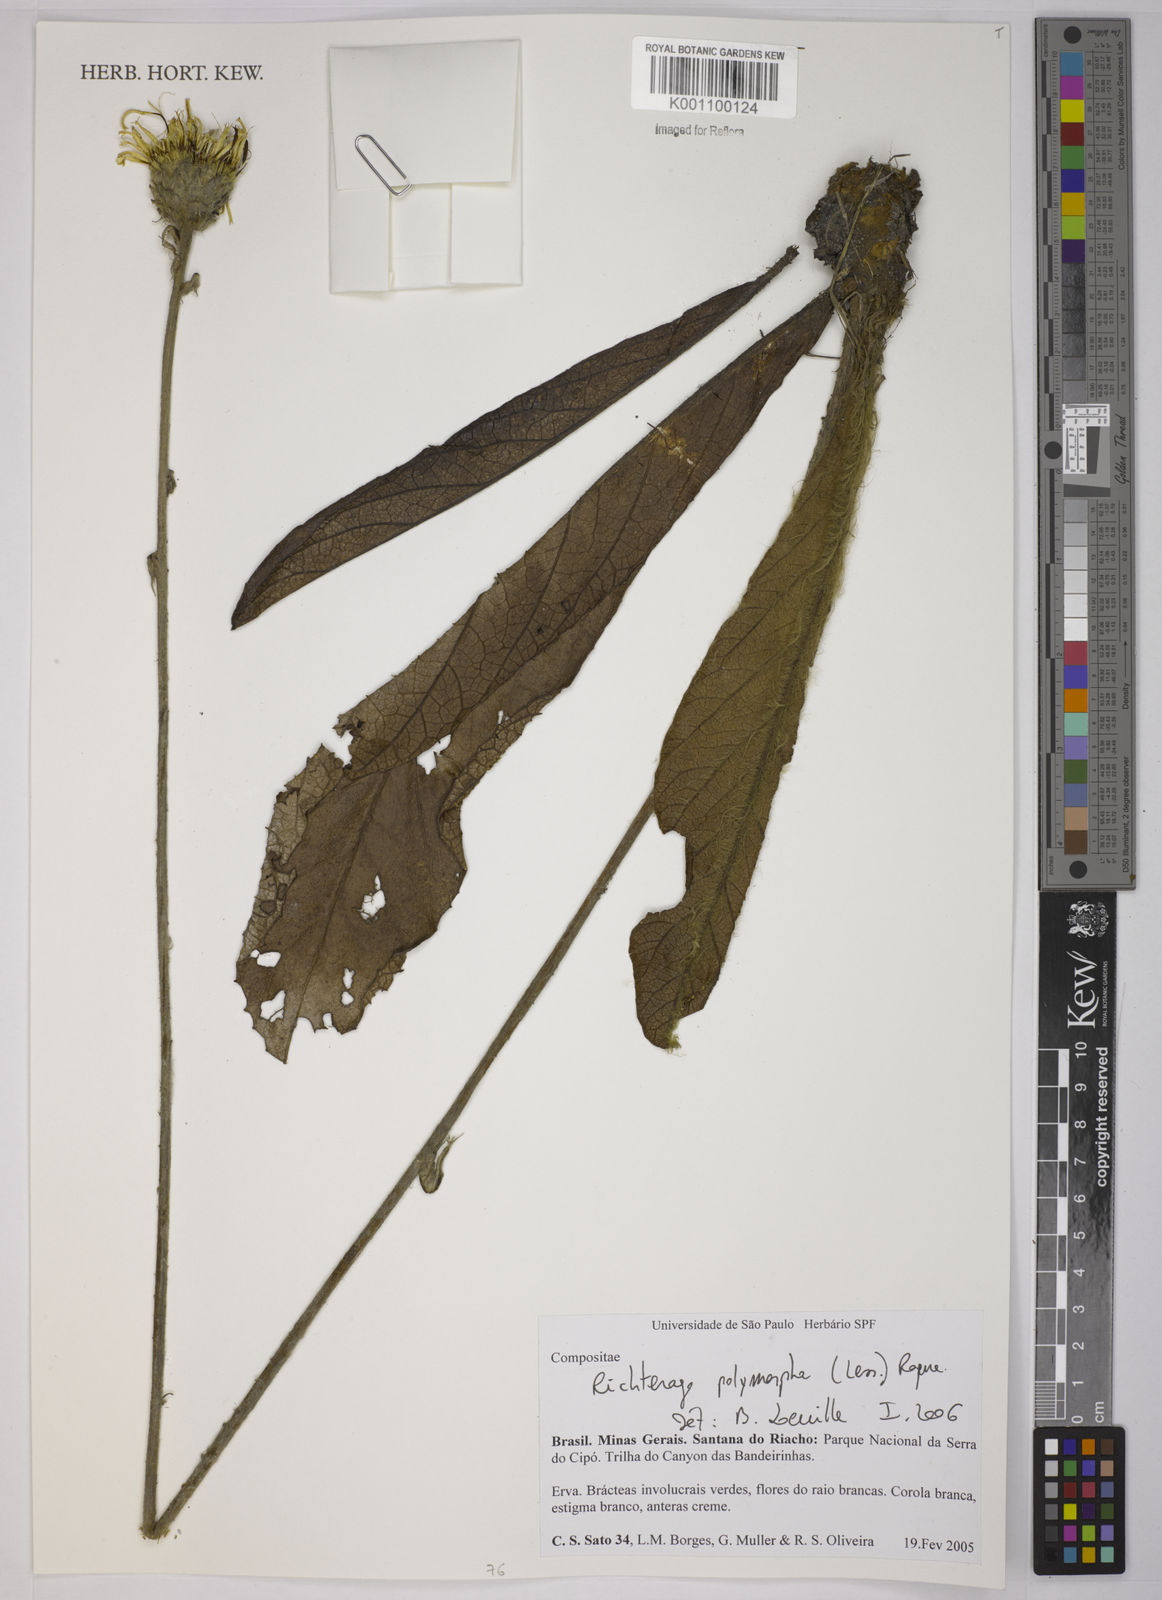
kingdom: Plantae
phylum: Tracheophyta
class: Magnoliopsida
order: Asterales
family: Asteraceae
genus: Richterago
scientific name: Richterago polymorpha
